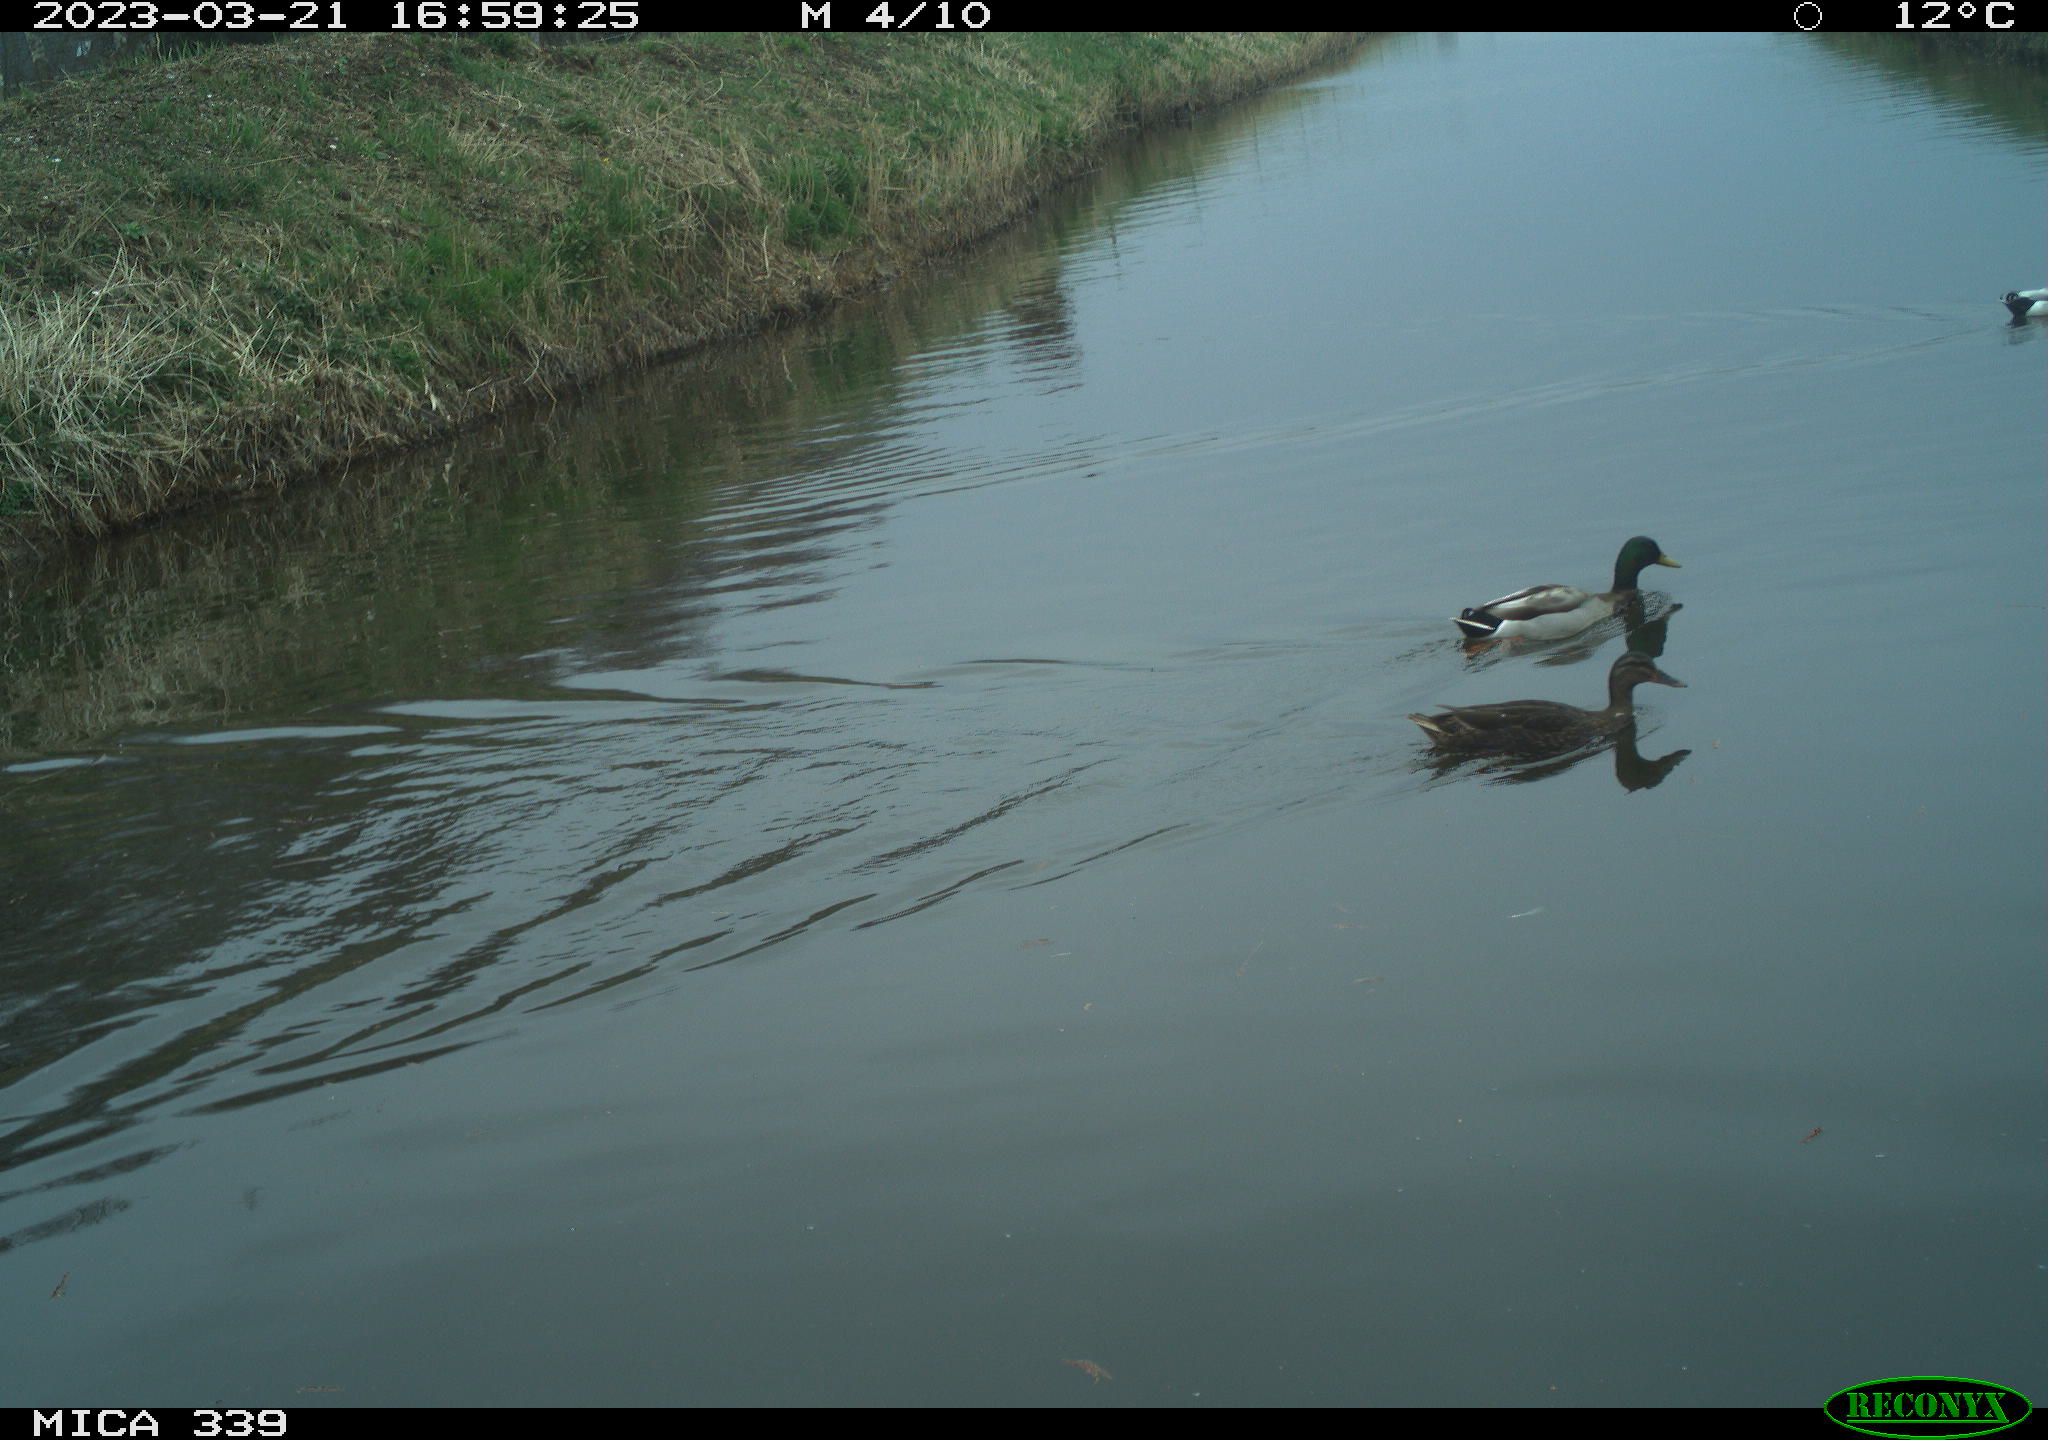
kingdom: Animalia
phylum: Chordata
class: Aves
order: Anseriformes
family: Anatidae
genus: Anas
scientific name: Anas
